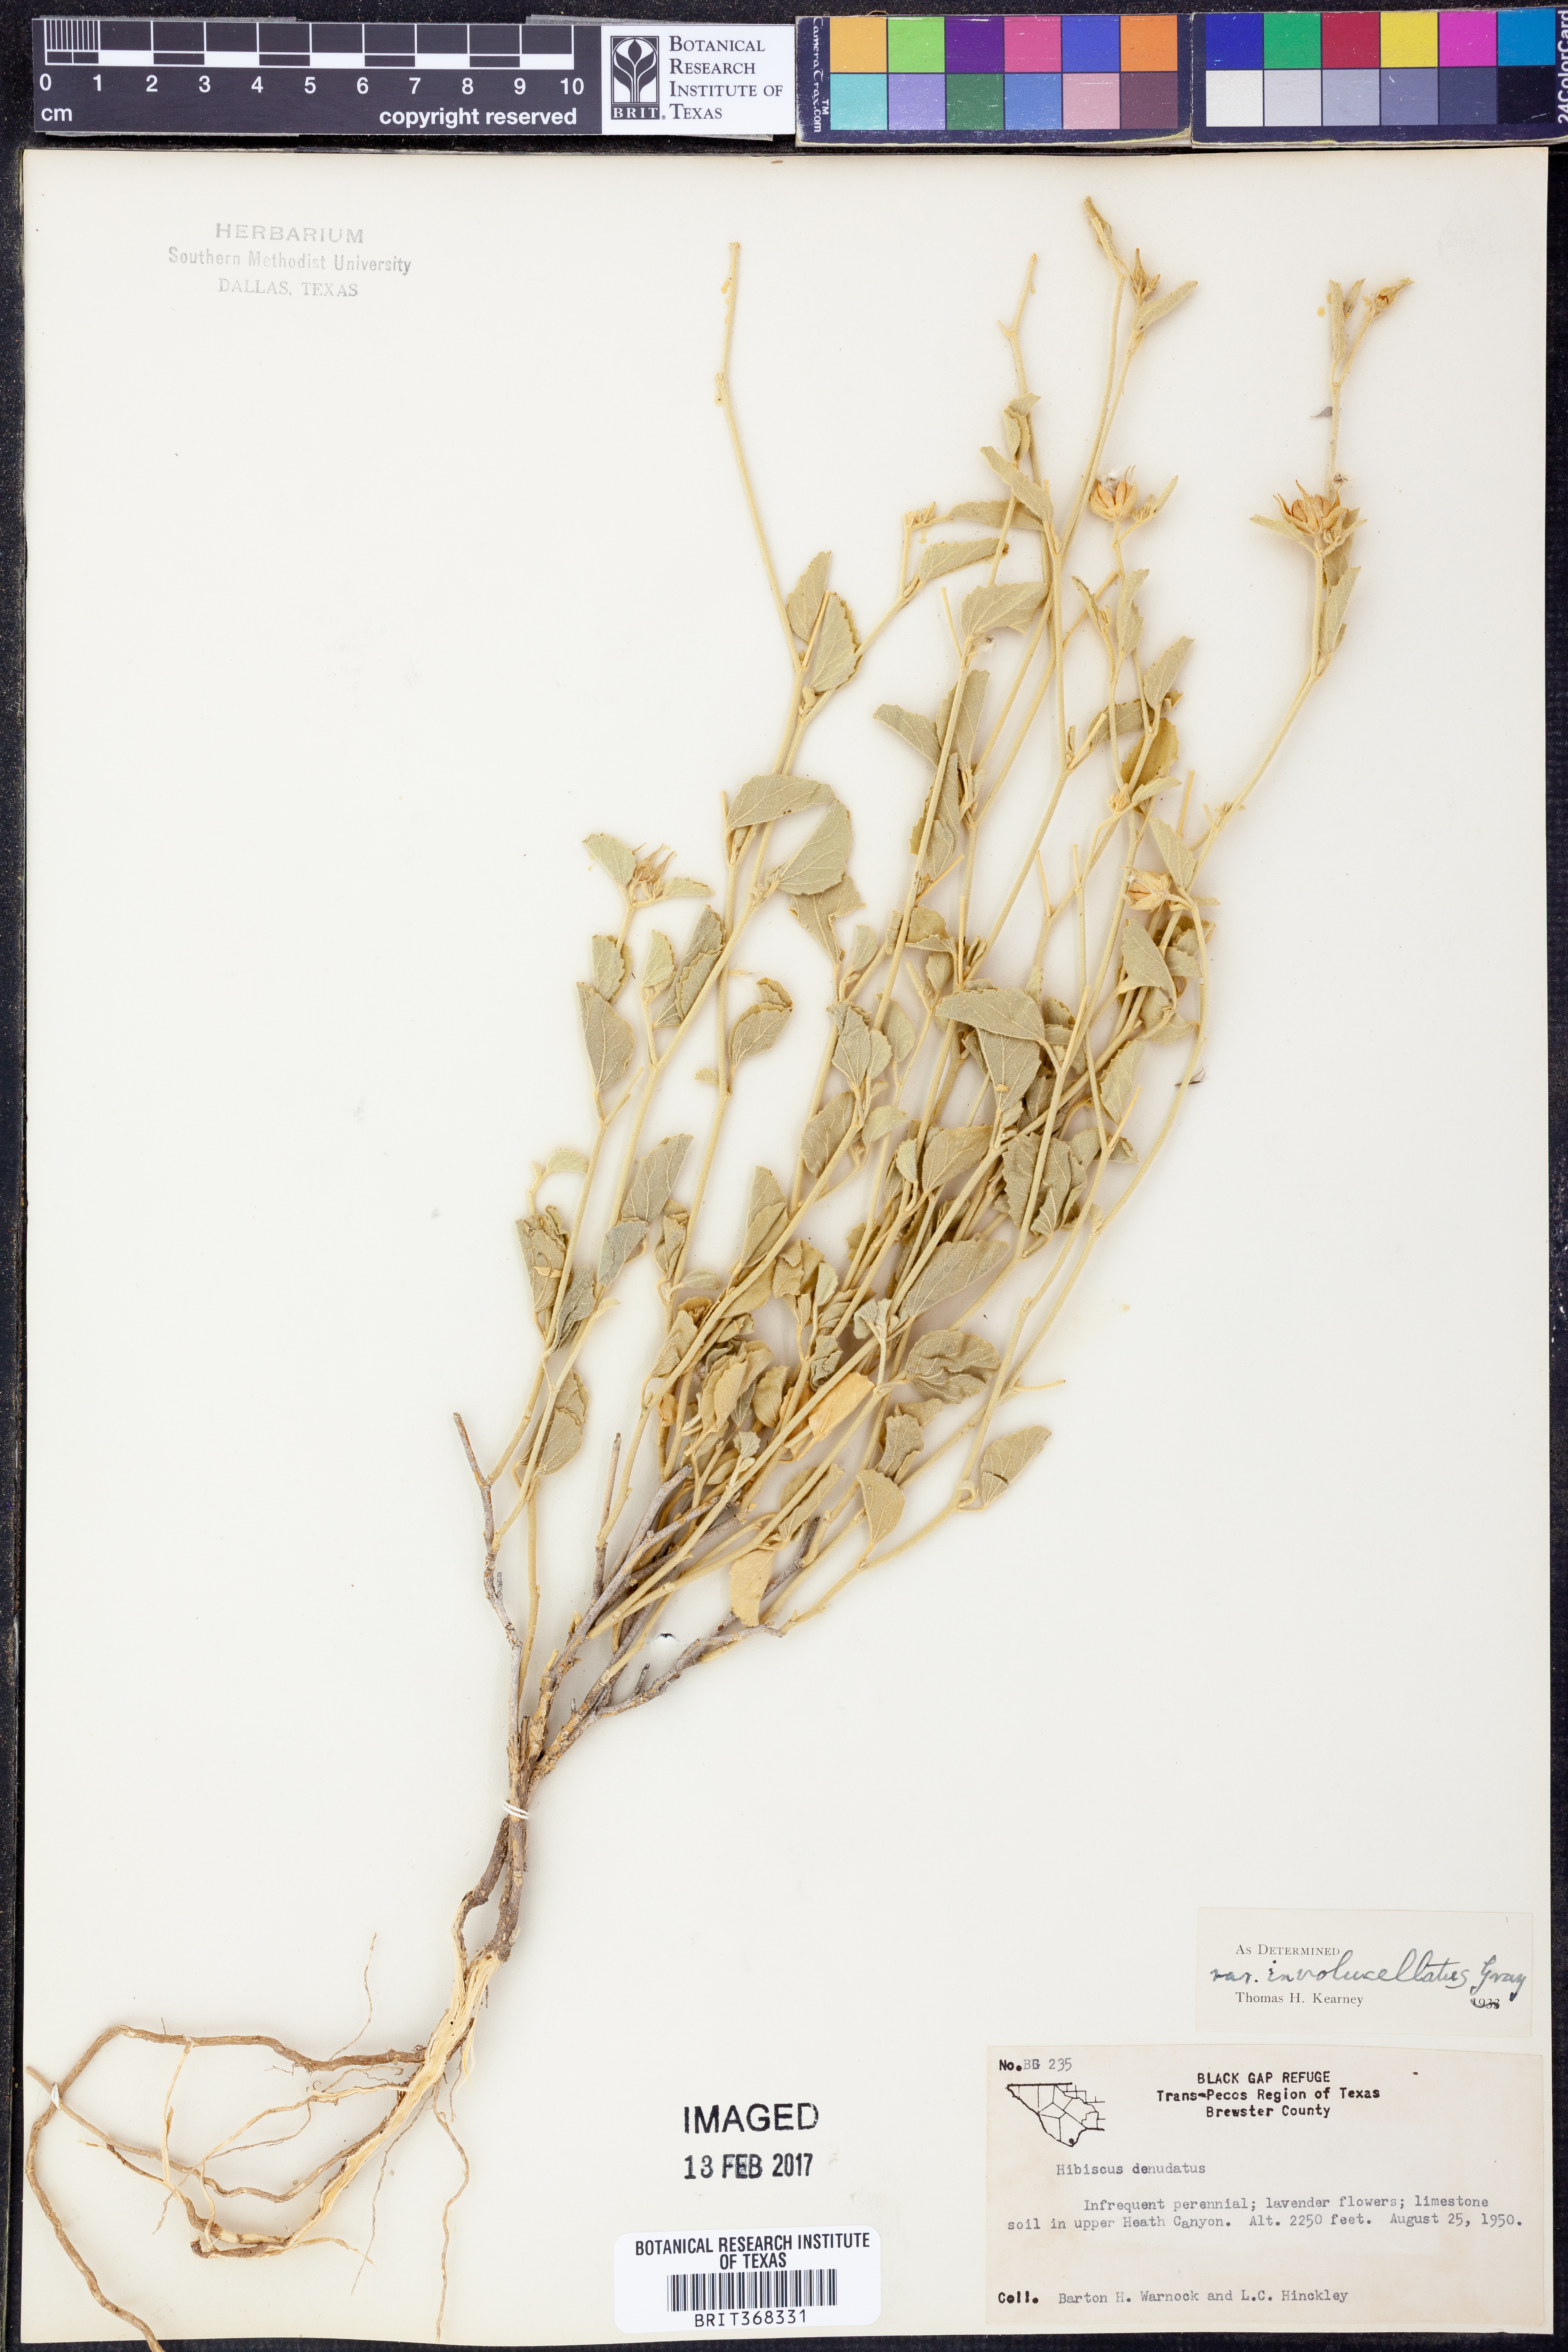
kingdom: Plantae
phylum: Tracheophyta
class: Magnoliopsida
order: Malvales
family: Malvaceae
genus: Hibiscus
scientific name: Hibiscus denudatus
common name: Paleface
